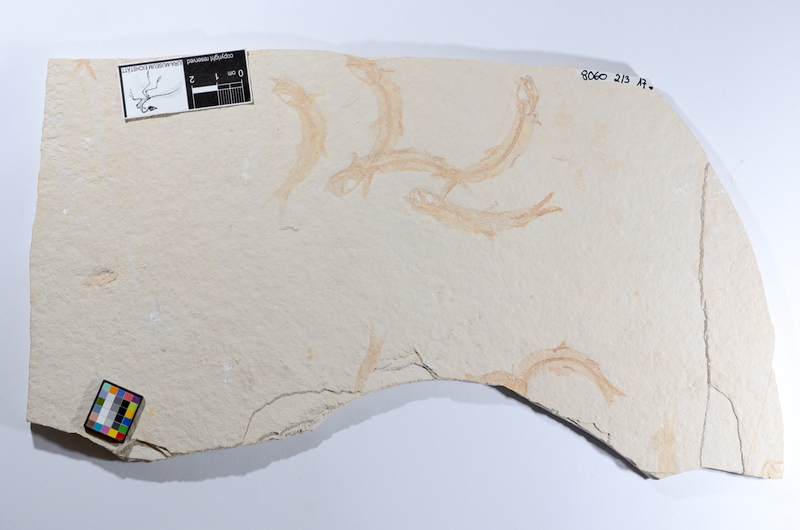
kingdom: Animalia
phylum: Chordata
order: Salmoniformes
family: Orthogonikleithridae
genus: Leptolepides
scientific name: Leptolepides sprattiformis
